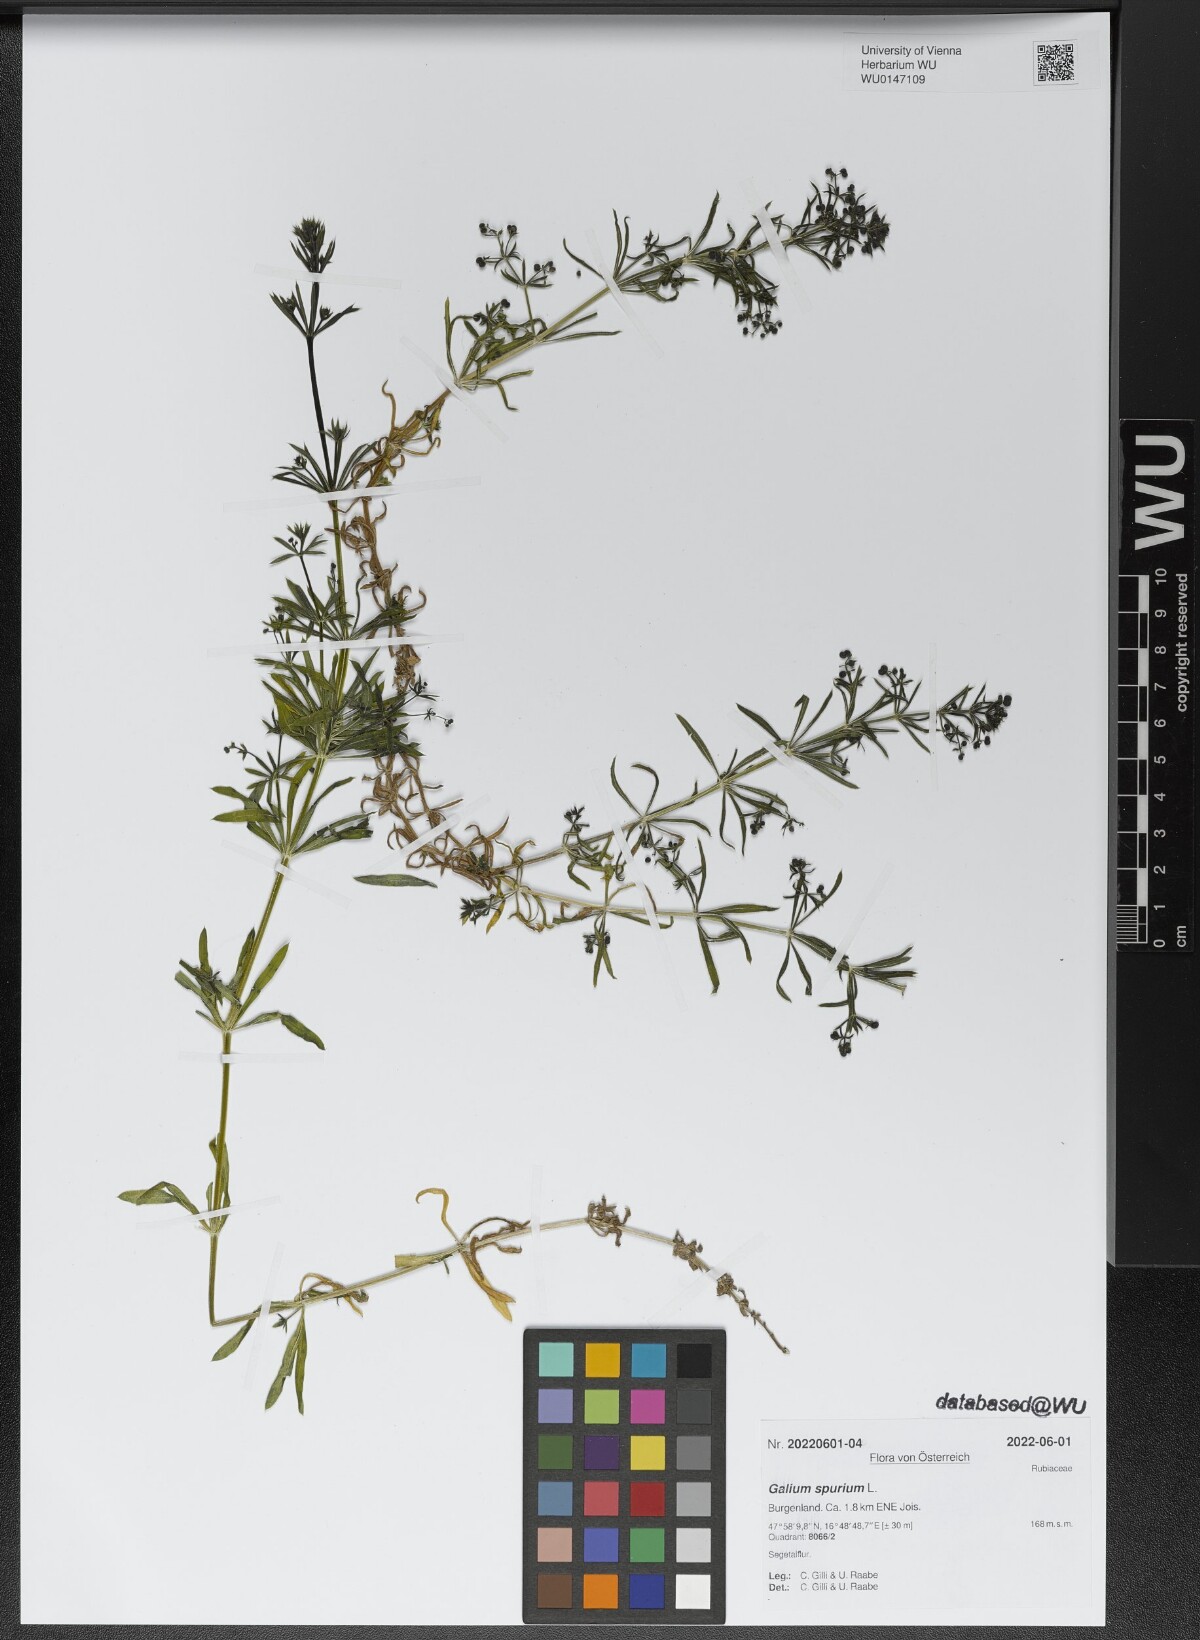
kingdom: Plantae
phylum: Tracheophyta
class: Magnoliopsida
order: Gentianales
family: Rubiaceae
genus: Galium
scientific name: Galium spurium
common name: False cleavers
